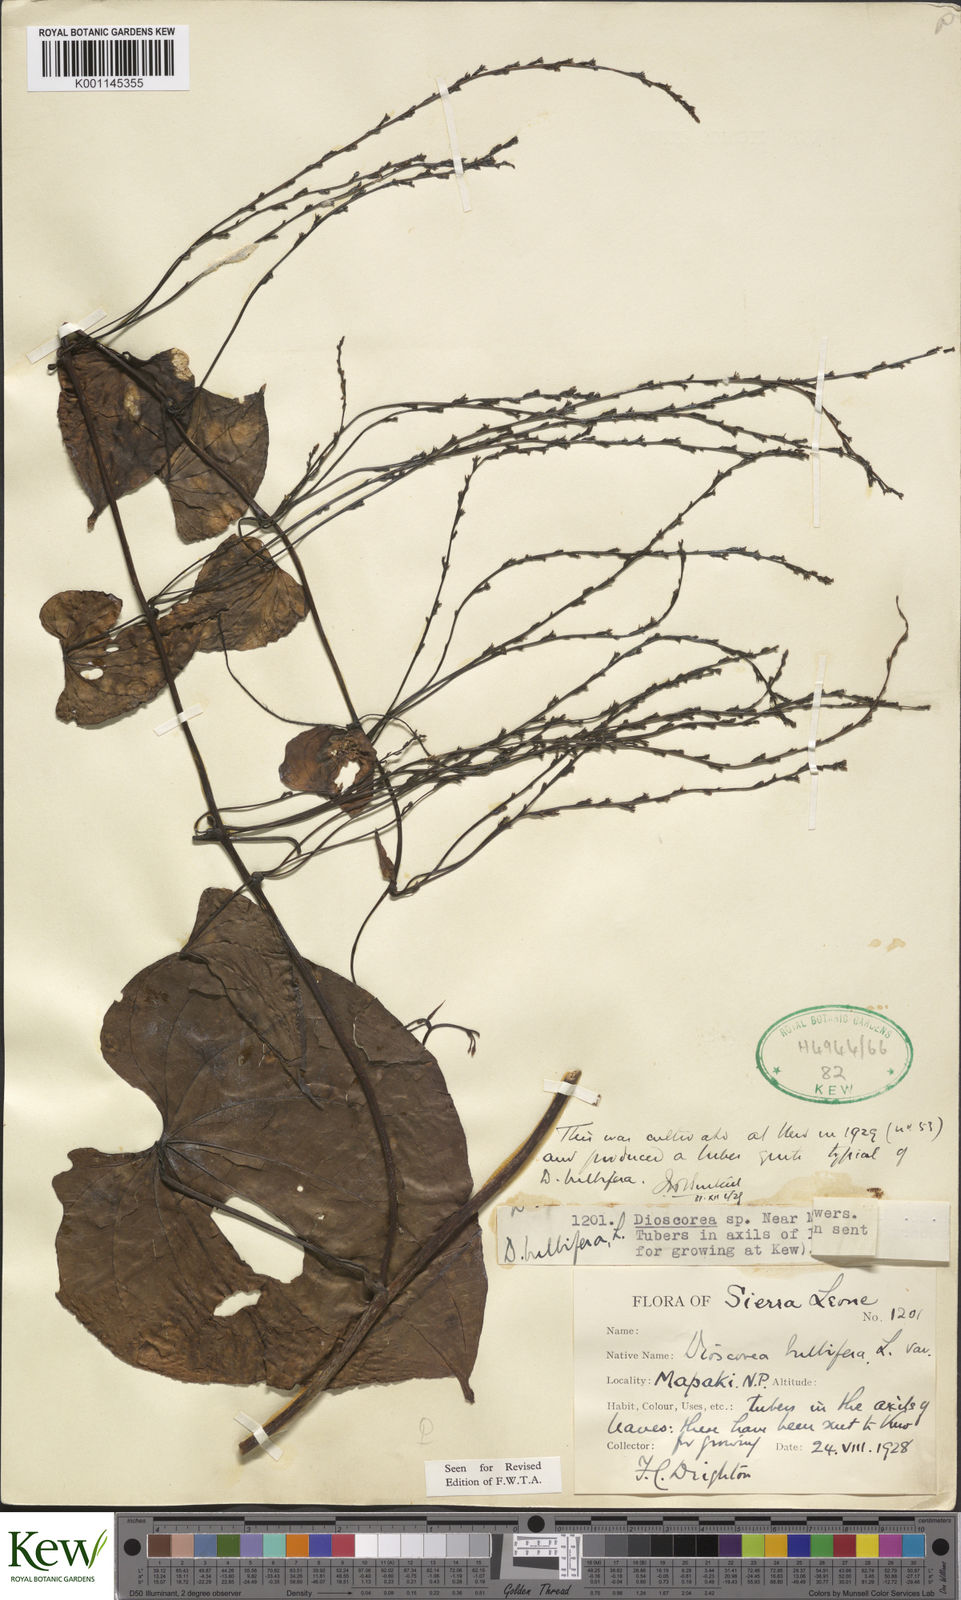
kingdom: Plantae
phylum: Tracheophyta
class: Liliopsida
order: Dioscoreales
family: Dioscoreaceae
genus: Dioscorea
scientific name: Dioscorea bulbifera
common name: Air yam
